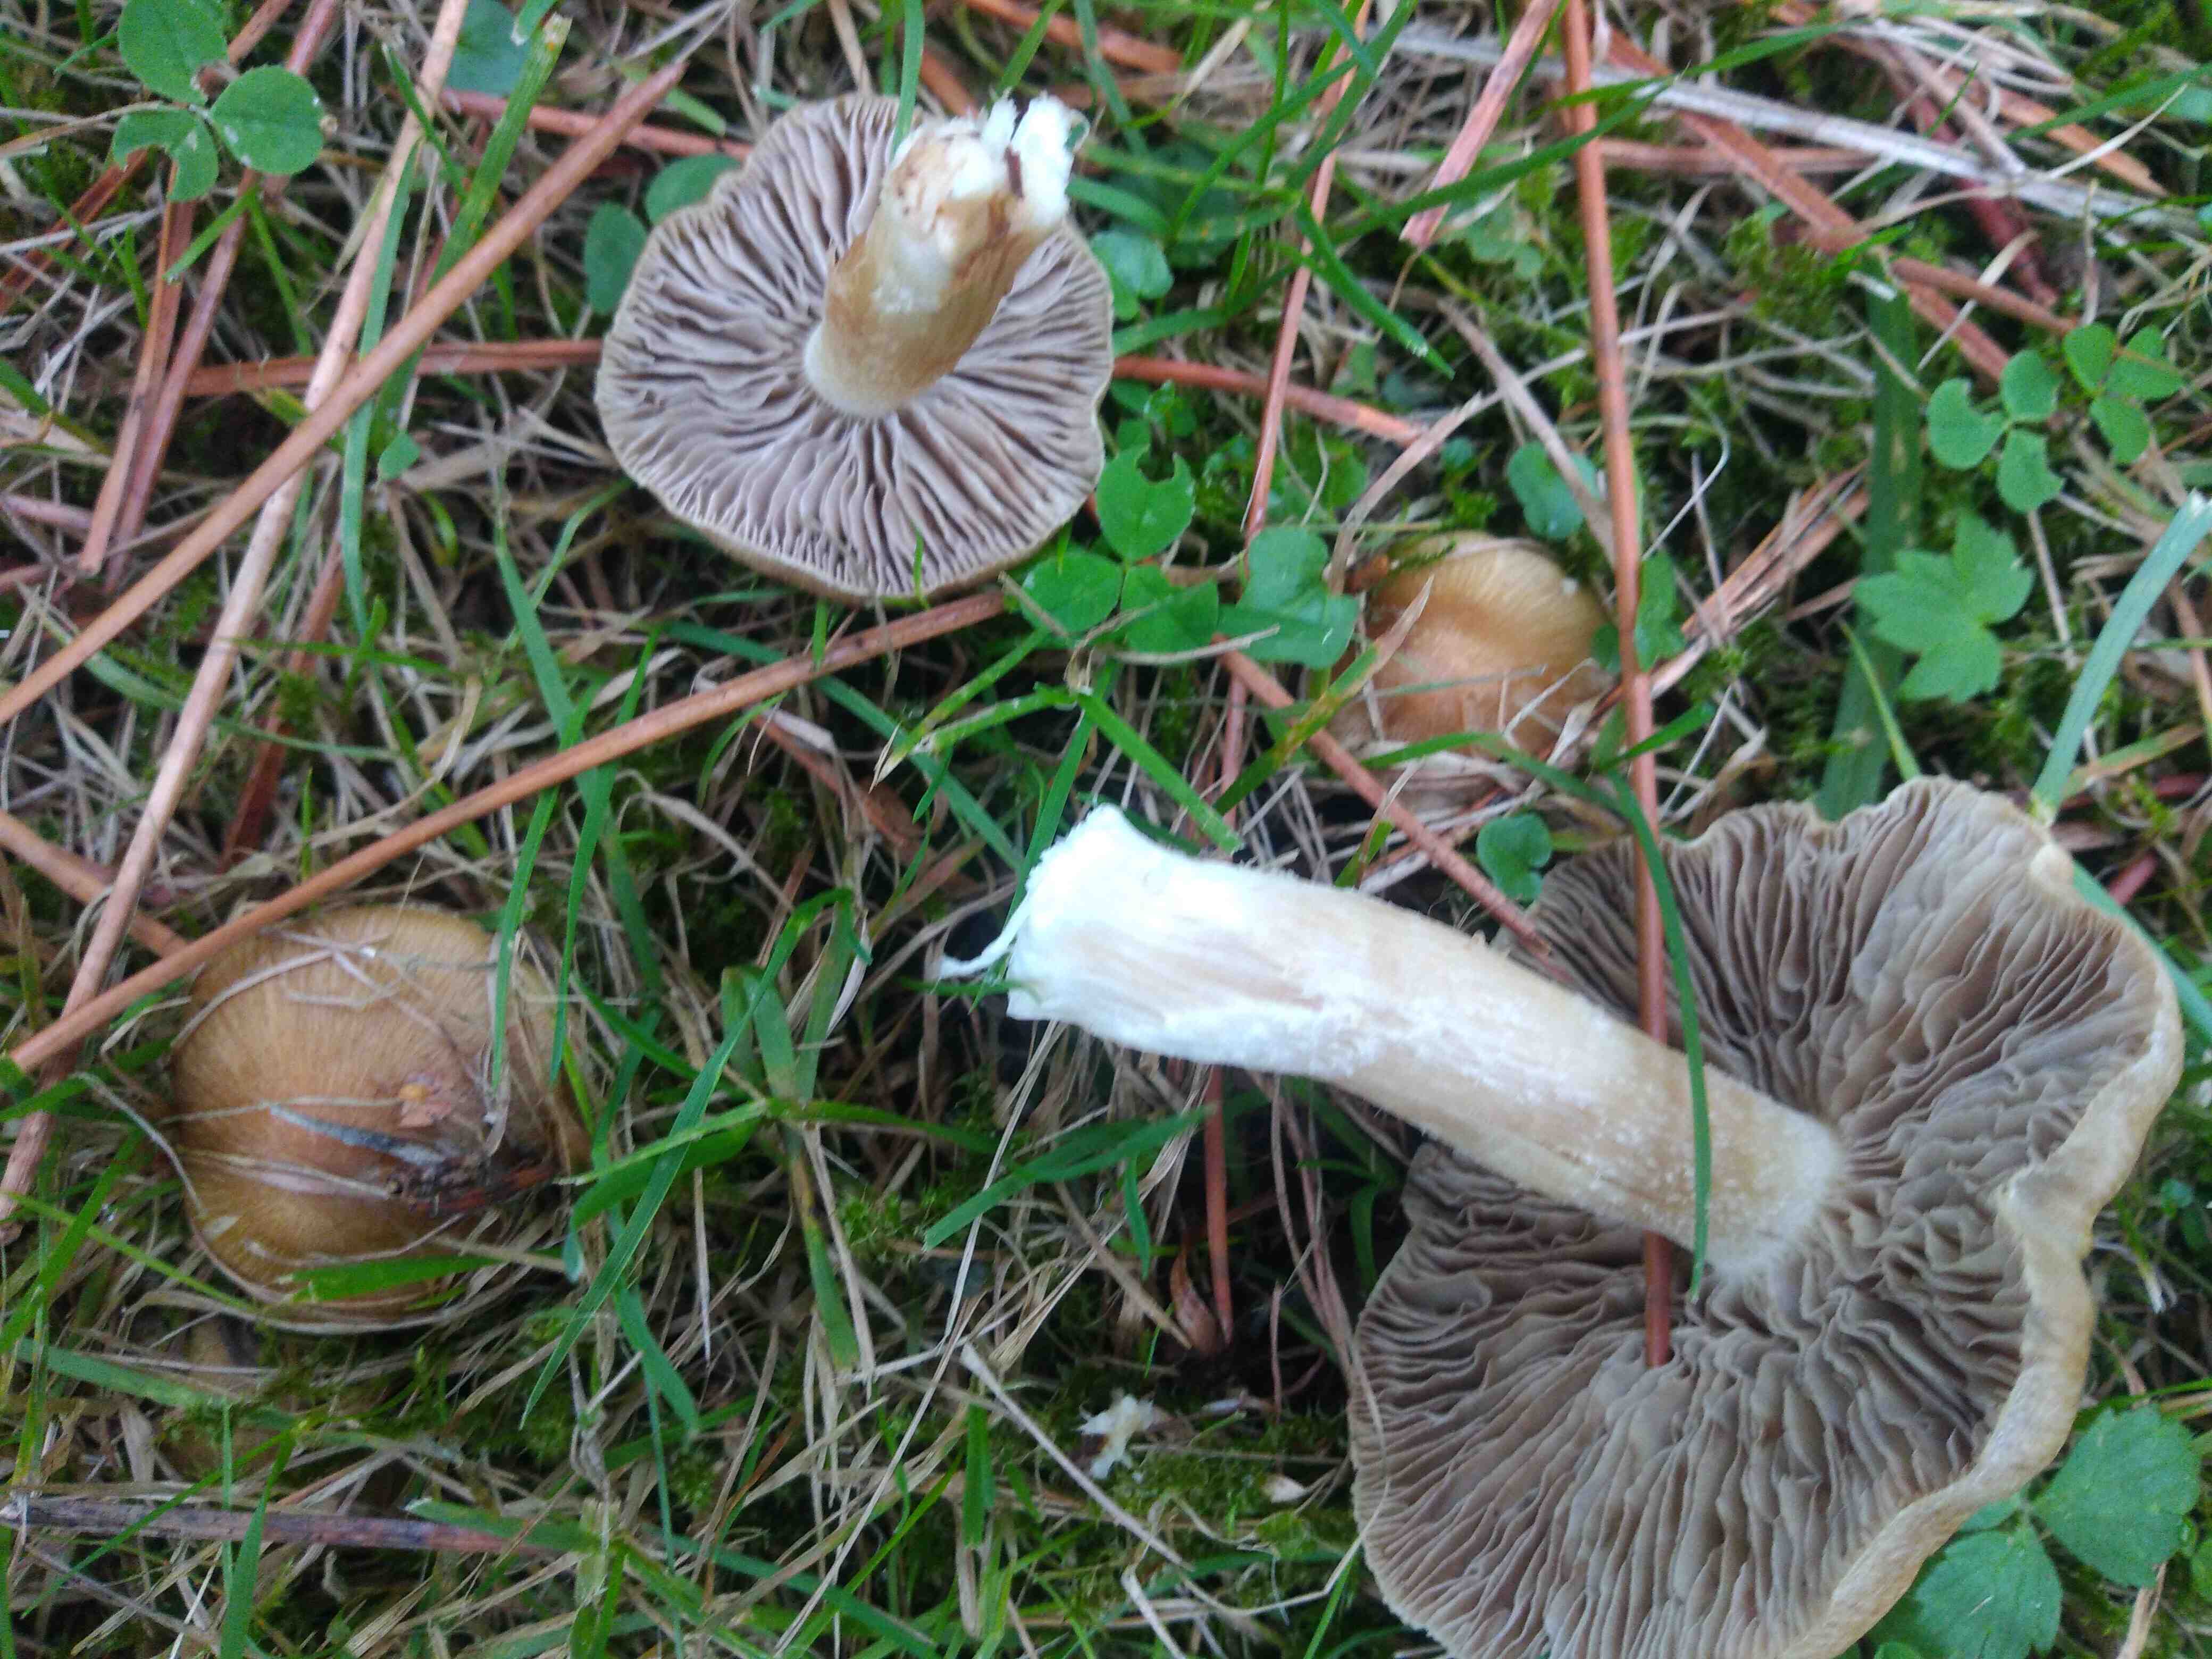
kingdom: Fungi
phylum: Basidiomycota
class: Agaricomycetes
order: Agaricales
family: Inocybaceae
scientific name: Inocybaceae
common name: trævlhatfamilien
